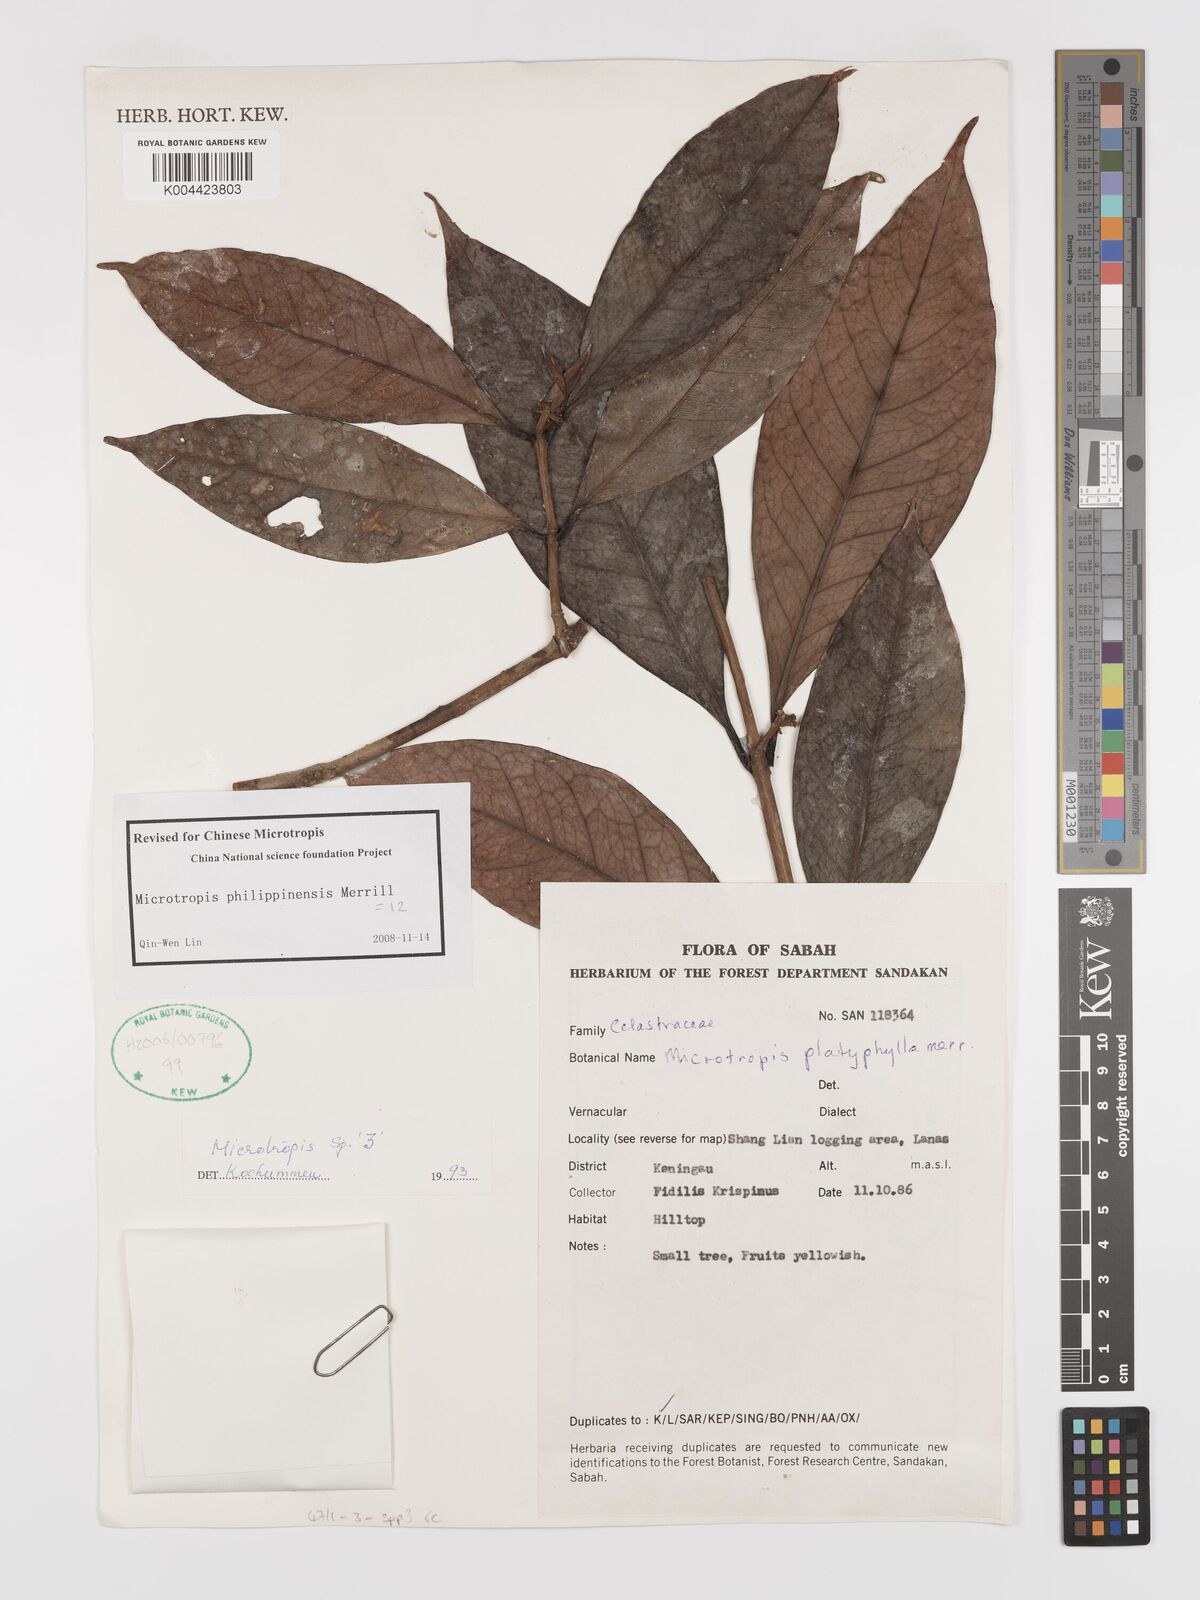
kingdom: Plantae
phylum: Tracheophyta
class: Magnoliopsida
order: Celastrales
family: Celastraceae
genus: Microtropis
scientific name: Microtropis platyphylla
